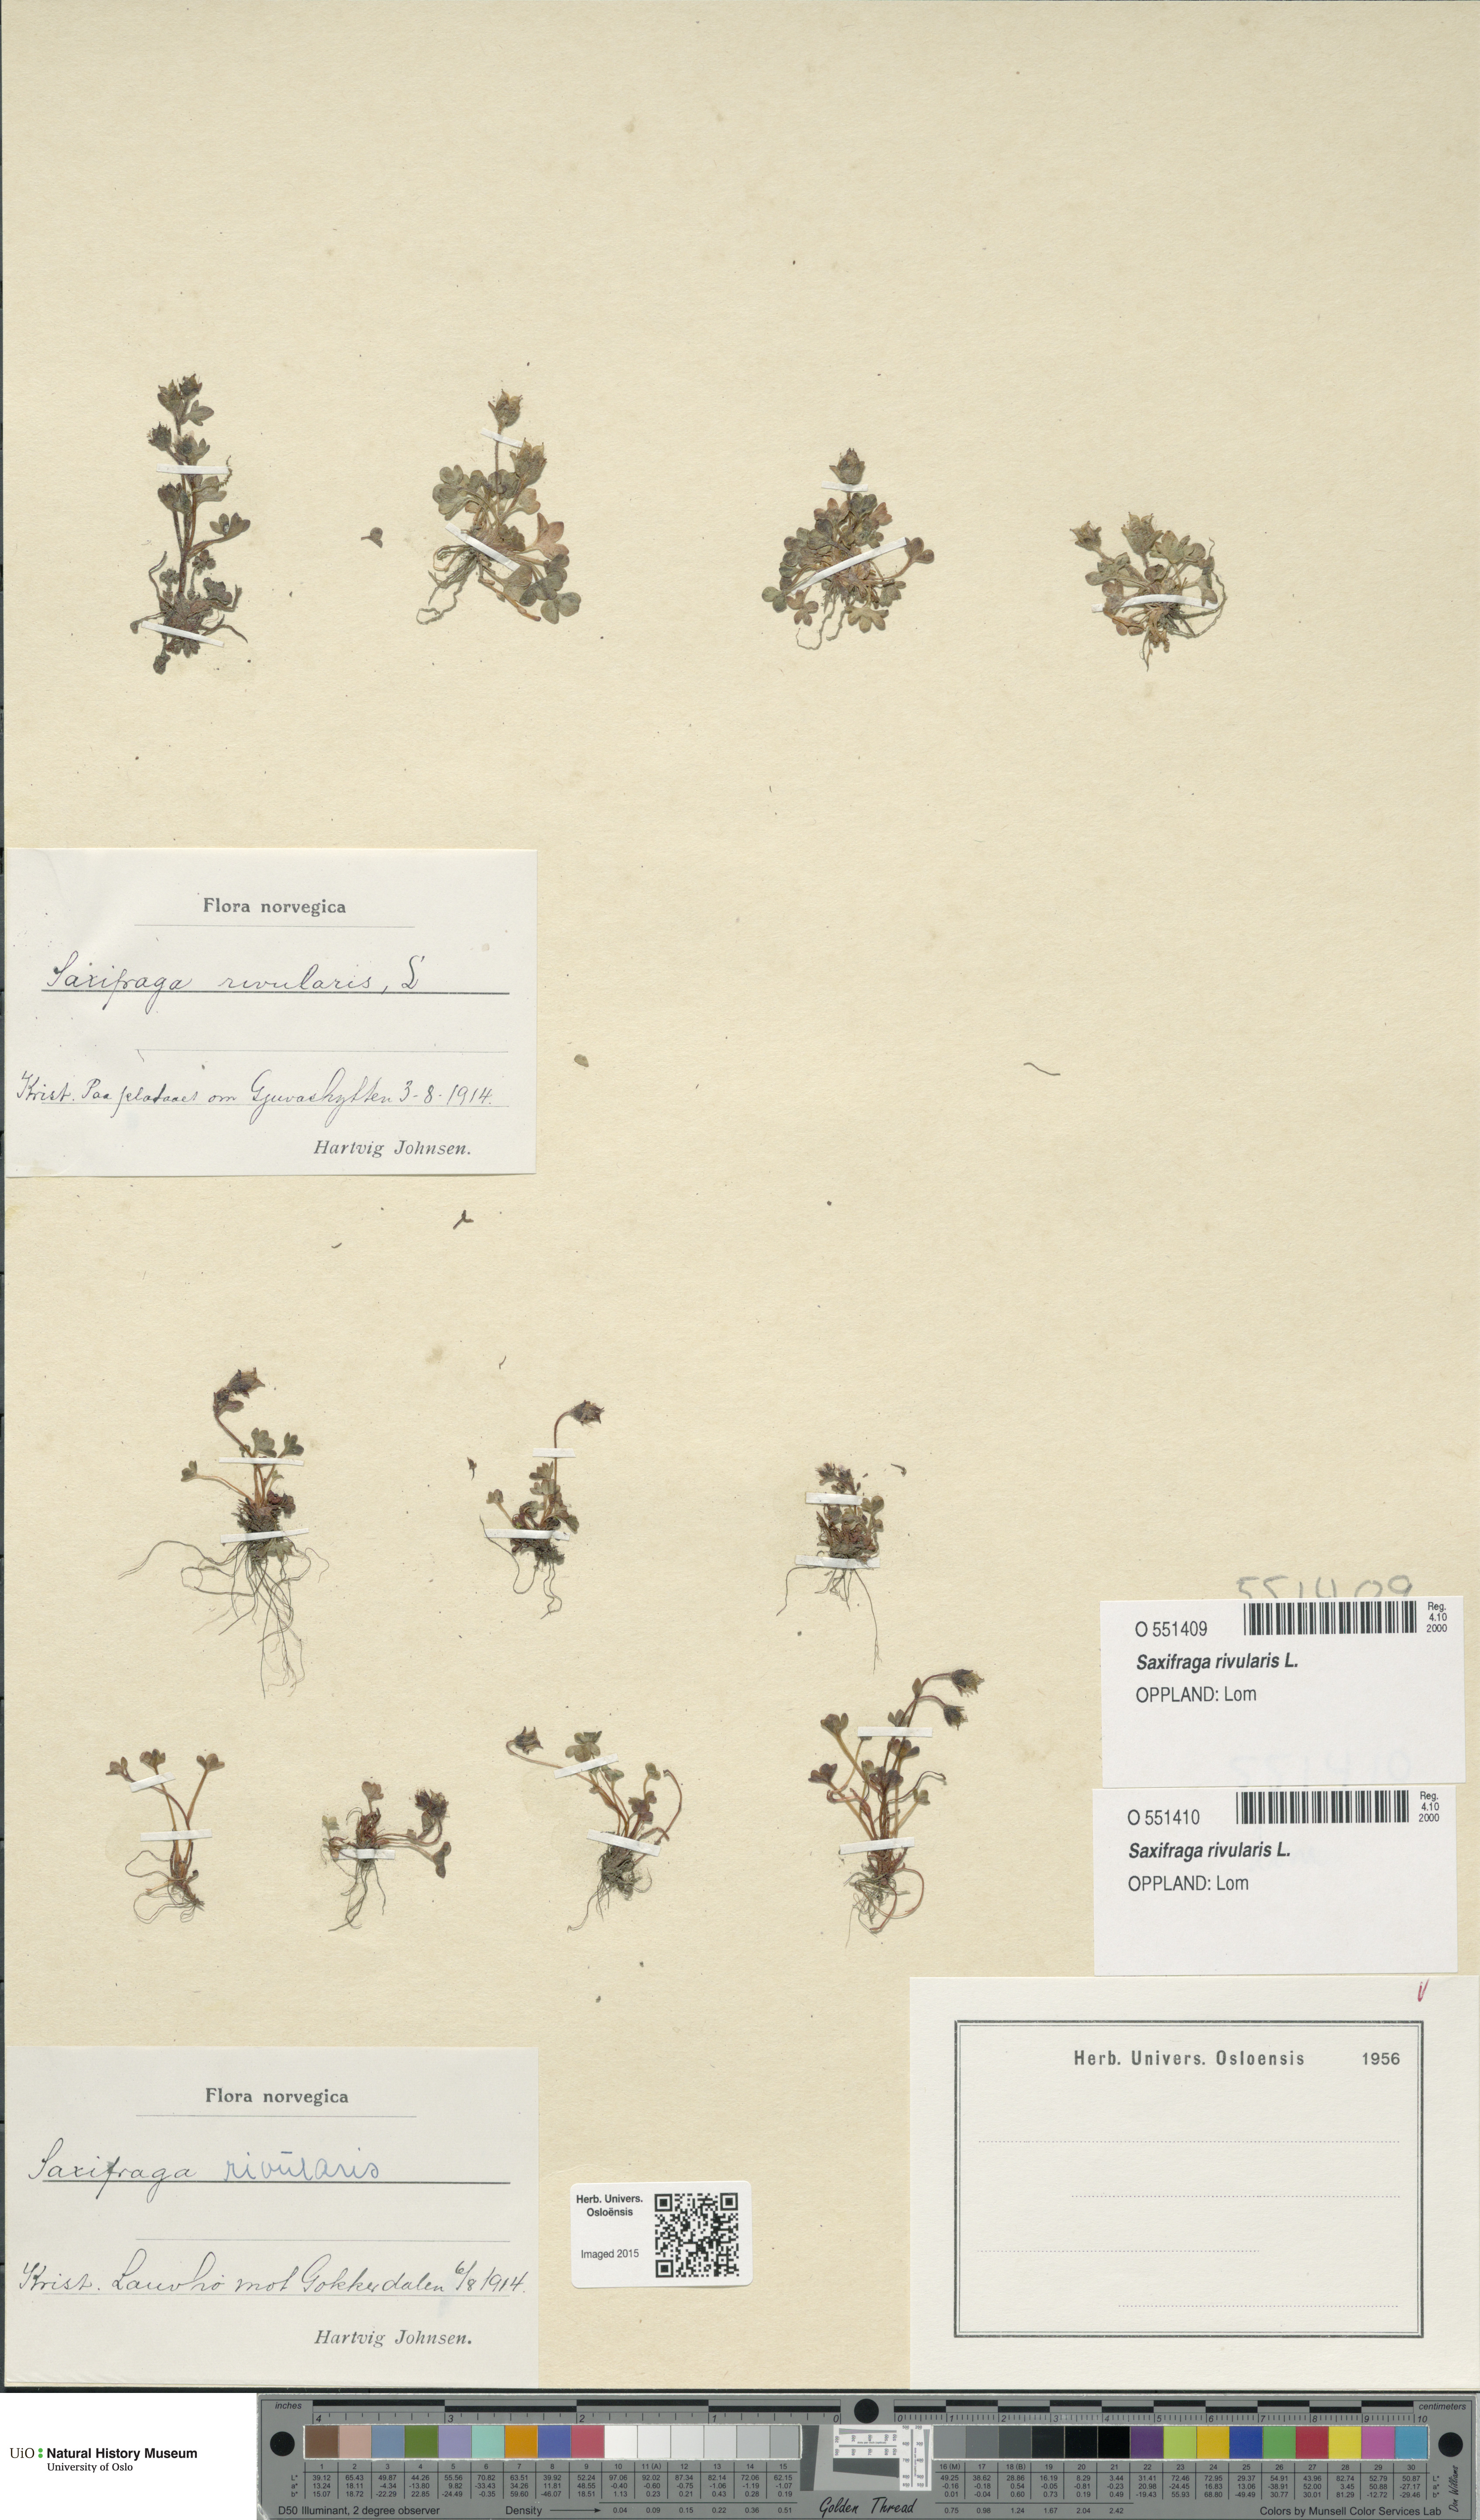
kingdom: Plantae
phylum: Tracheophyta
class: Magnoliopsida
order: Saxifragales
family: Saxifragaceae
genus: Saxifraga
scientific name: Saxifraga rivularis
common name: Highland saxifrage
